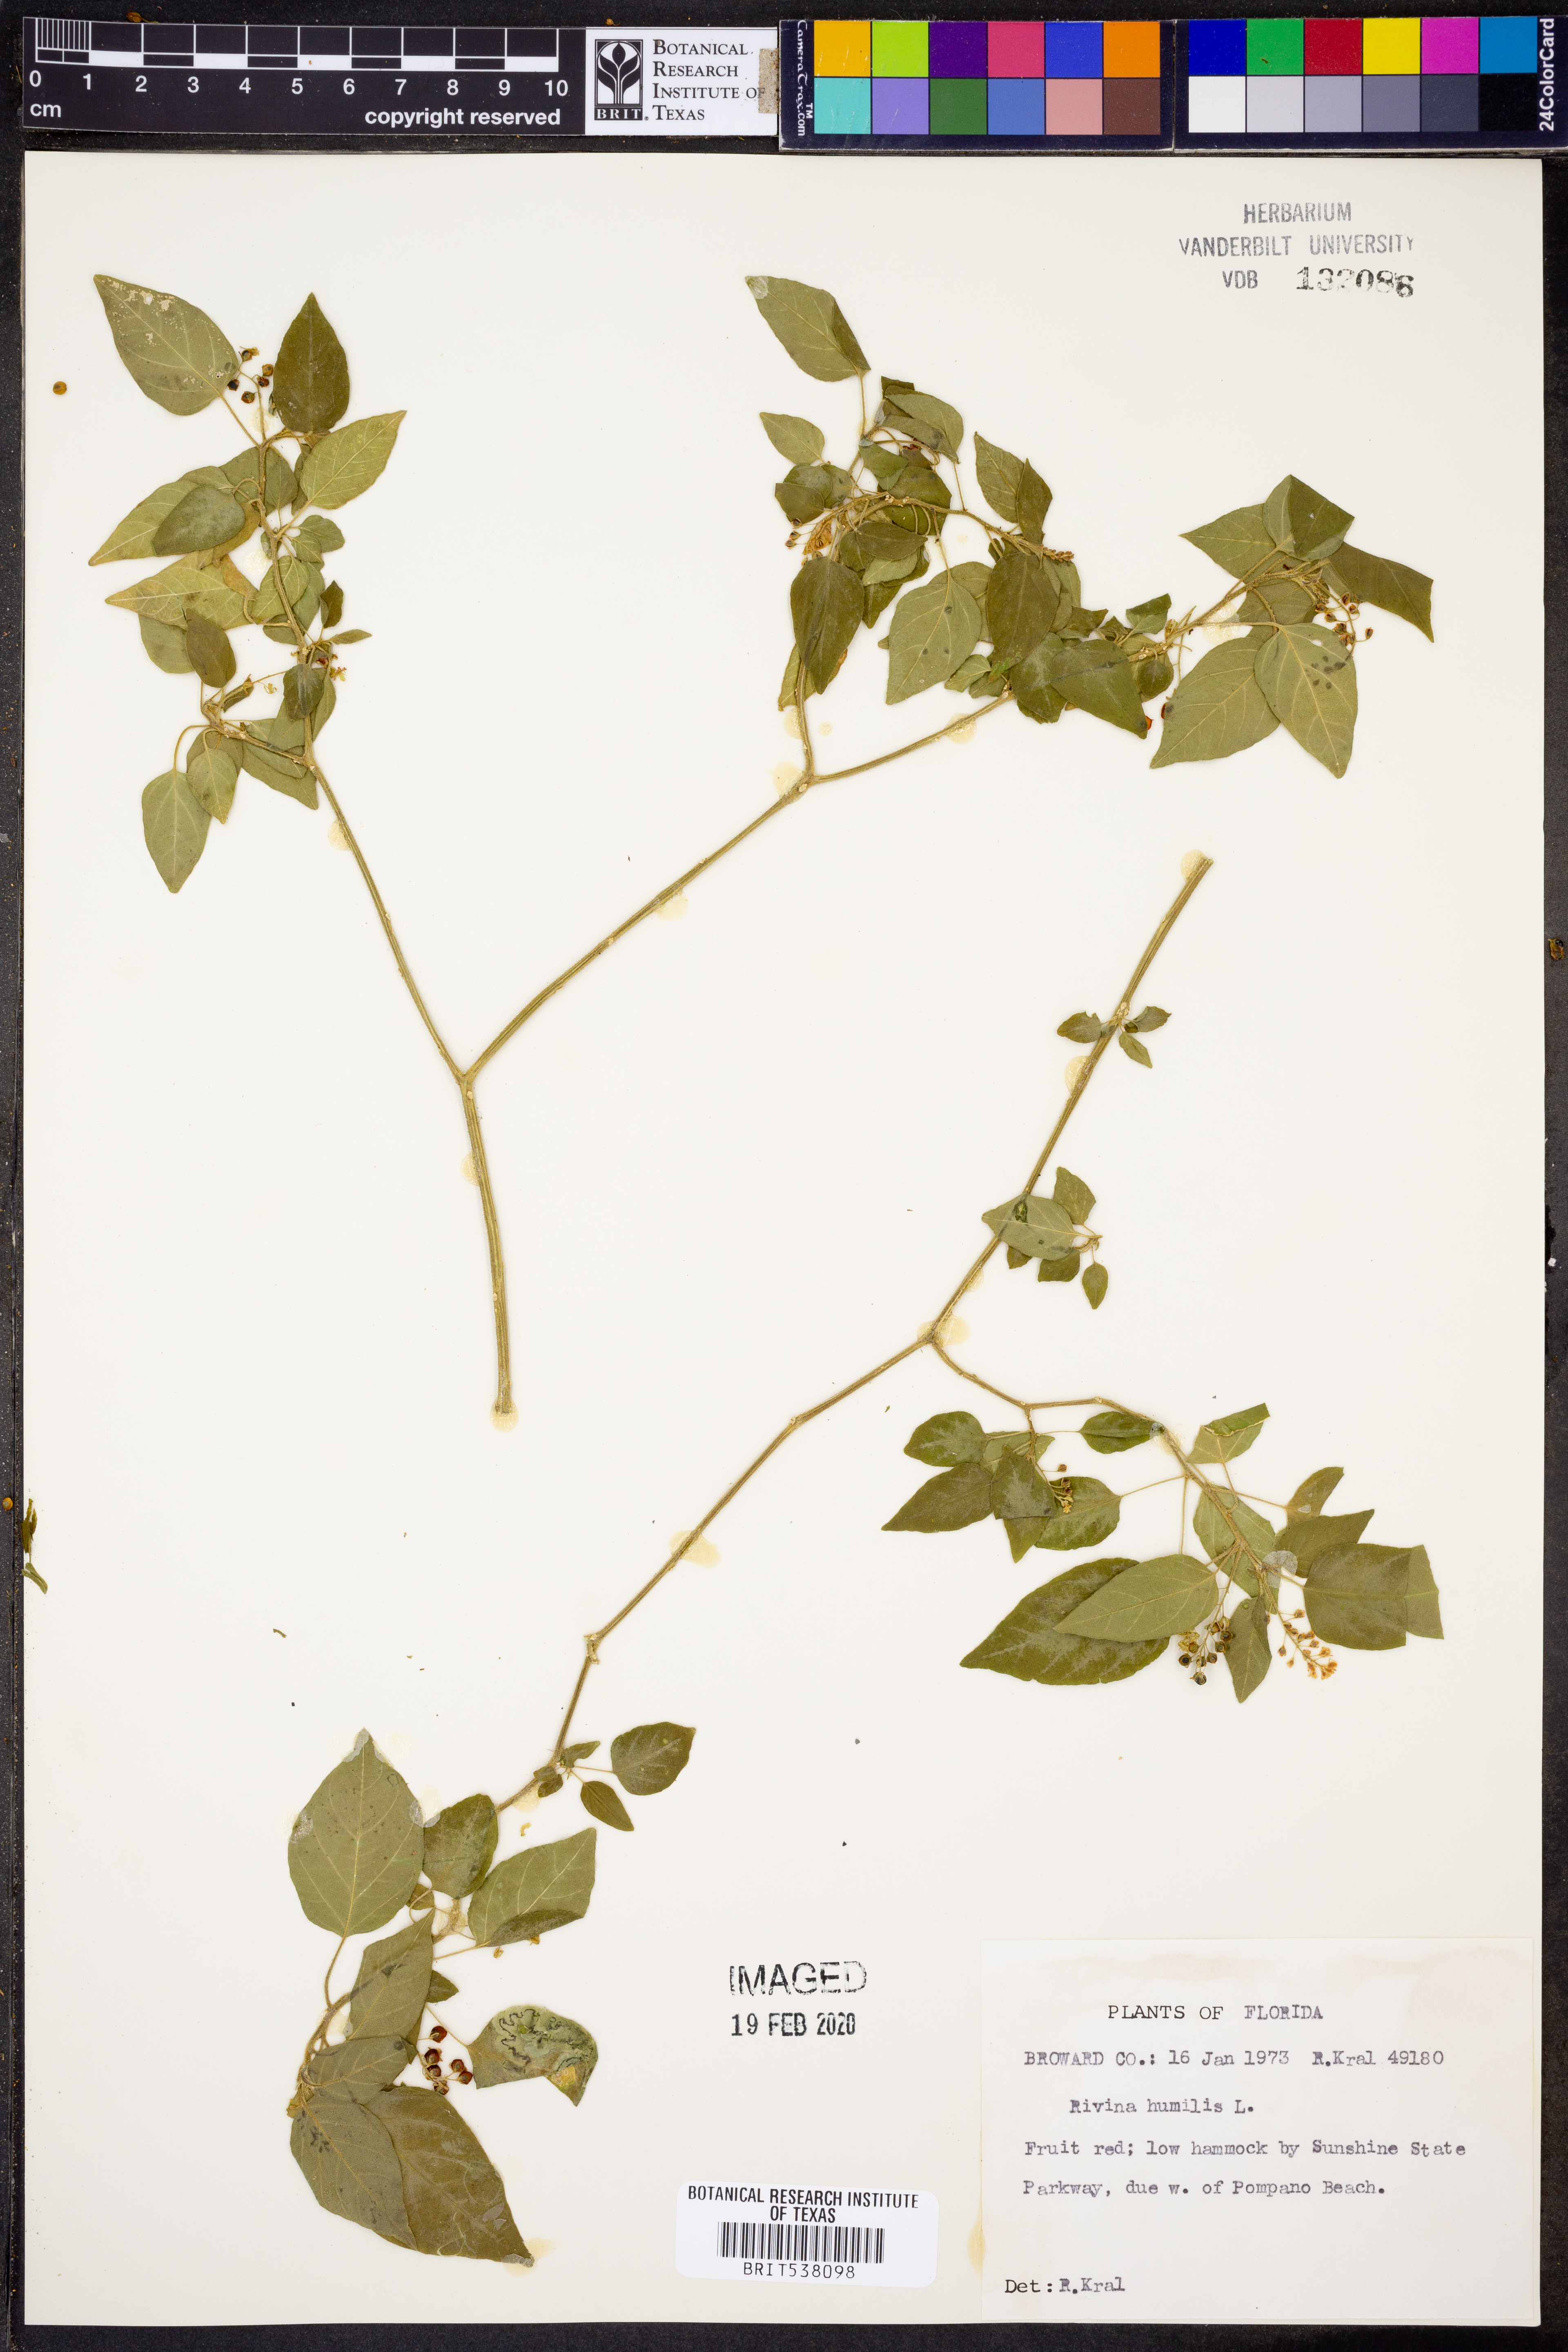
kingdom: Plantae
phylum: Tracheophyta
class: Magnoliopsida
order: Caryophyllales
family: Phytolaccaceae
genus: Rivina
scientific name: Rivina humilis
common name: Rougeplant
